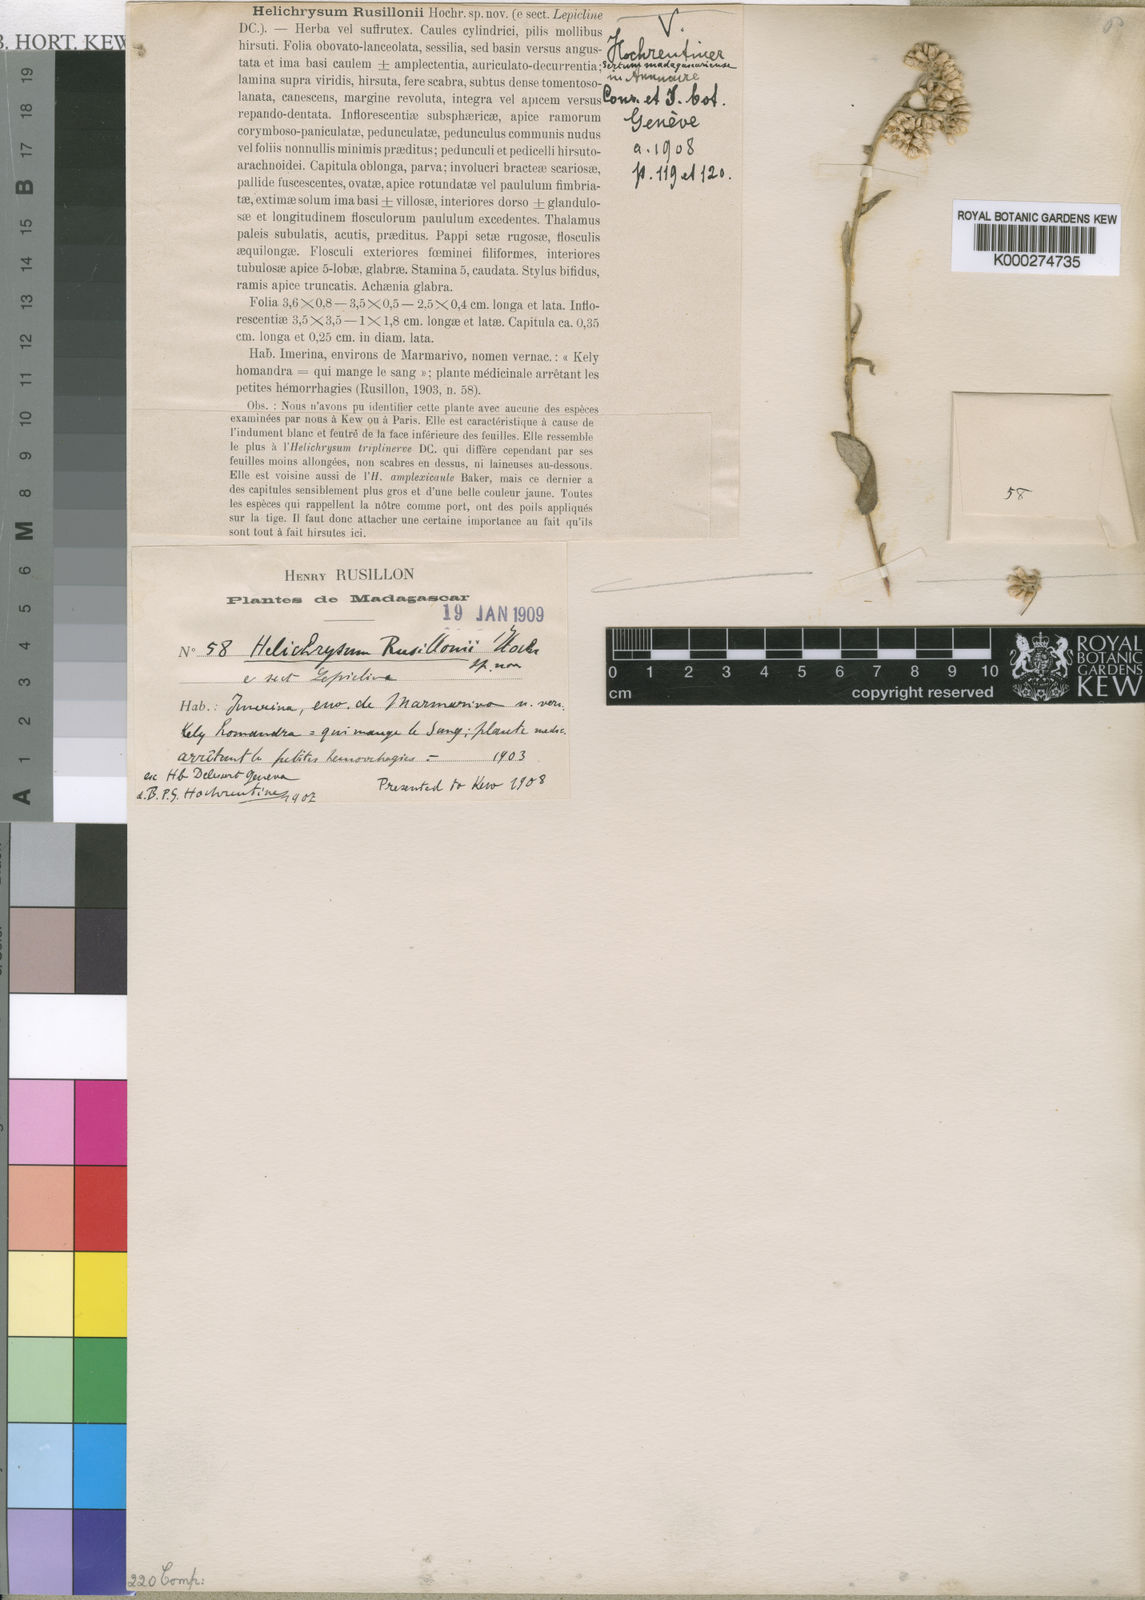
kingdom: Plantae
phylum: Tracheophyta
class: Magnoliopsida
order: Asterales
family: Asteraceae
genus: Helichrysum
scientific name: Helichrysum faradifani
